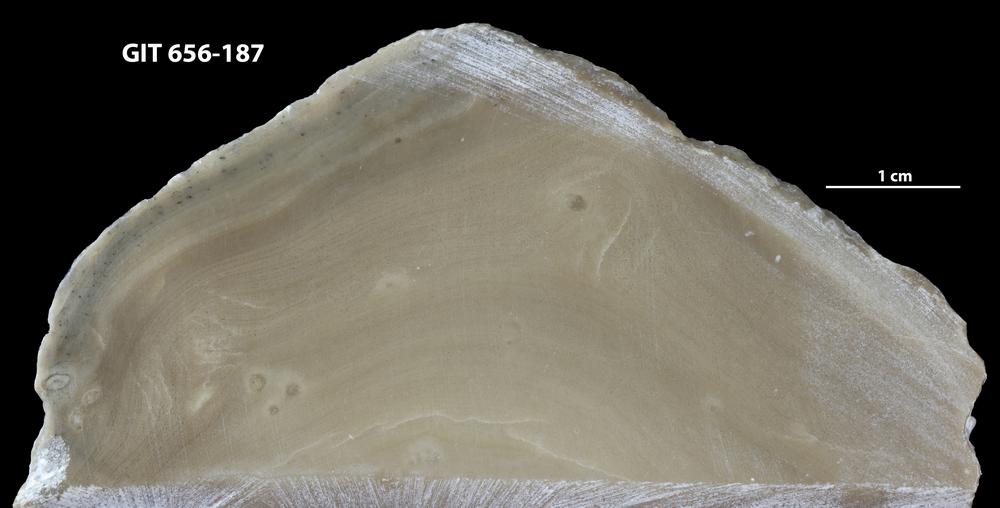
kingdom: Animalia
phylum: Porifera
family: Stromatoporidae
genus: Stromatopora
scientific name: Stromatopora
